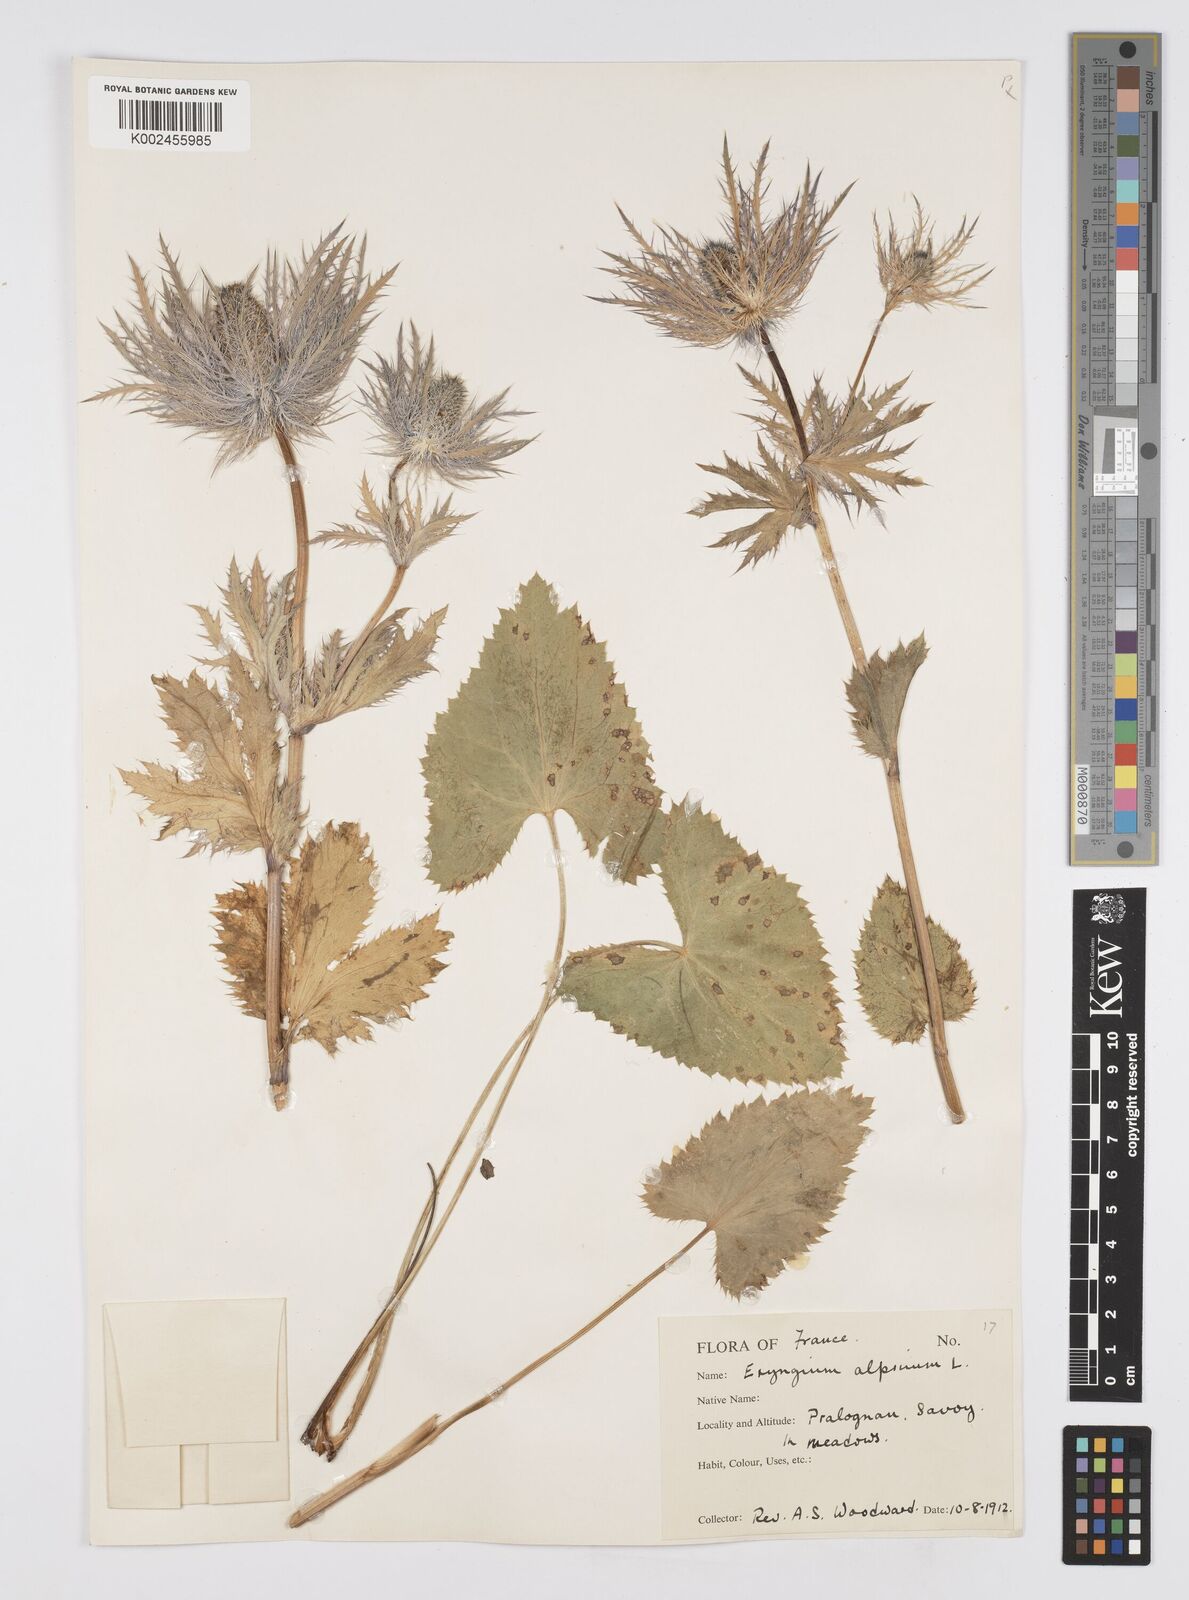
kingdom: Plantae
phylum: Tracheophyta
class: Magnoliopsida
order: Apiales
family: Apiaceae
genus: Eryngium
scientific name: Eryngium alpinum
